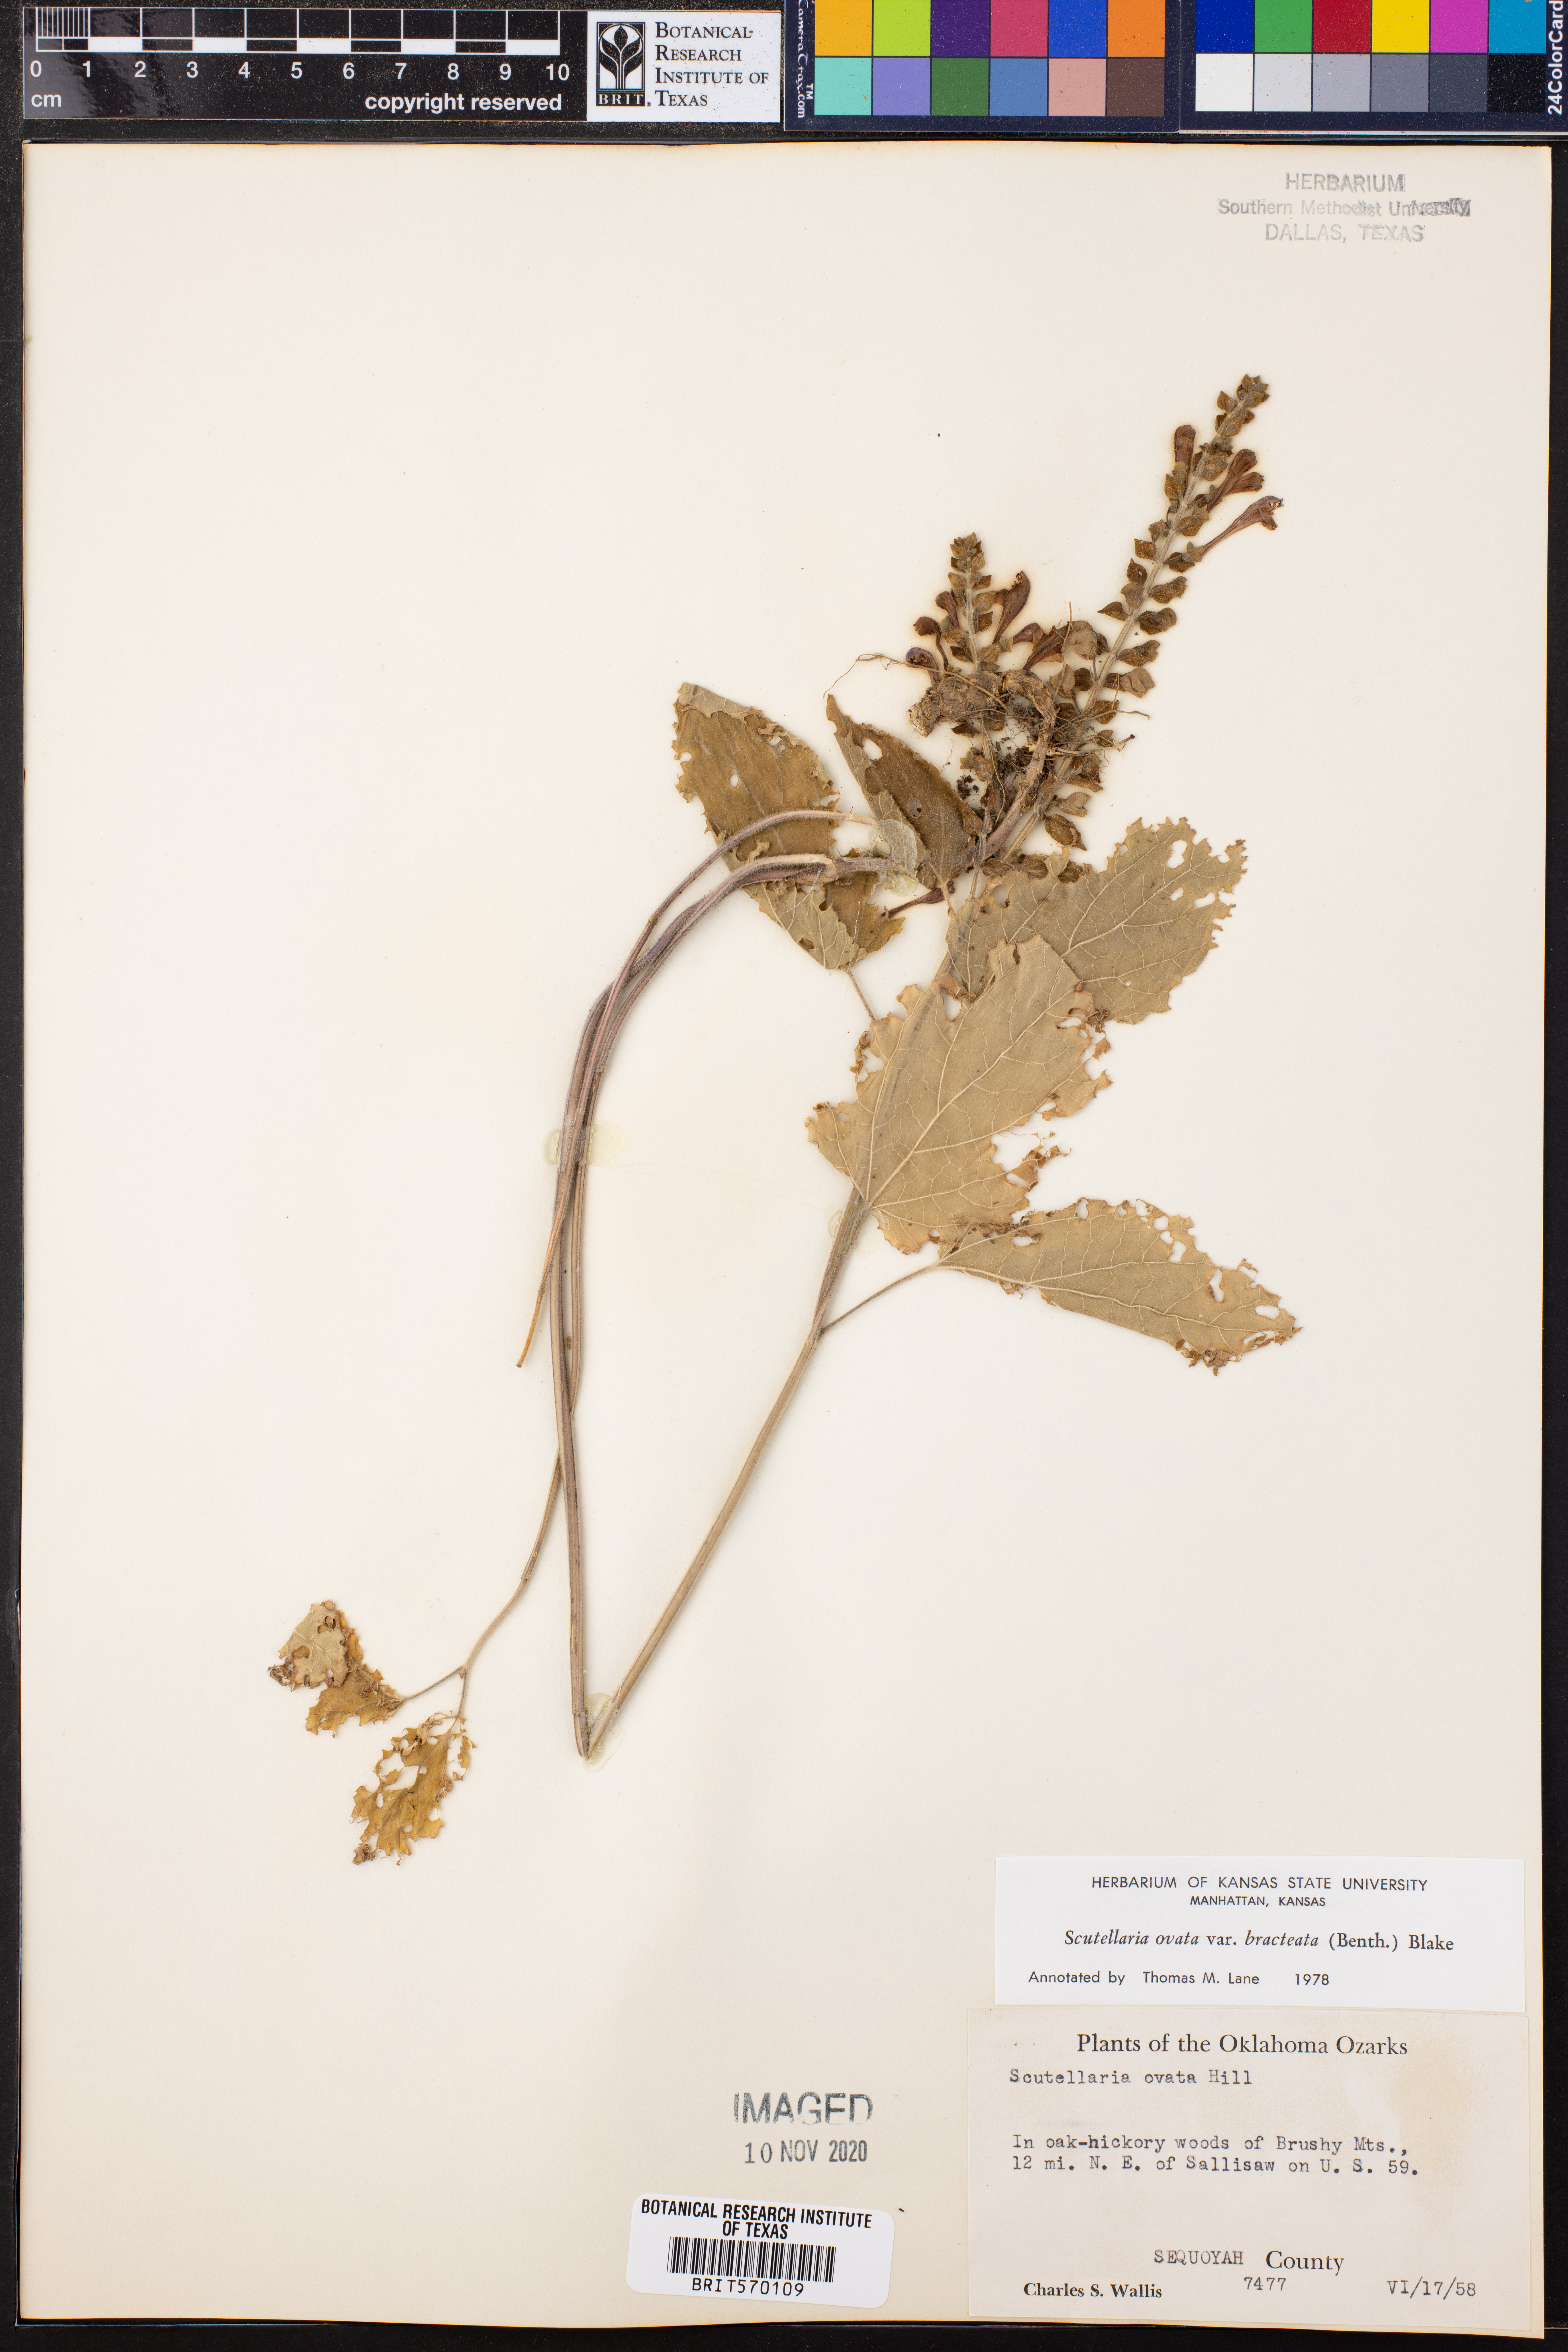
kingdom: Plantae
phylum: Tracheophyta
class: Magnoliopsida
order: Lamiales
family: Lamiaceae
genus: Scutellaria
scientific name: Scutellaria ovata
